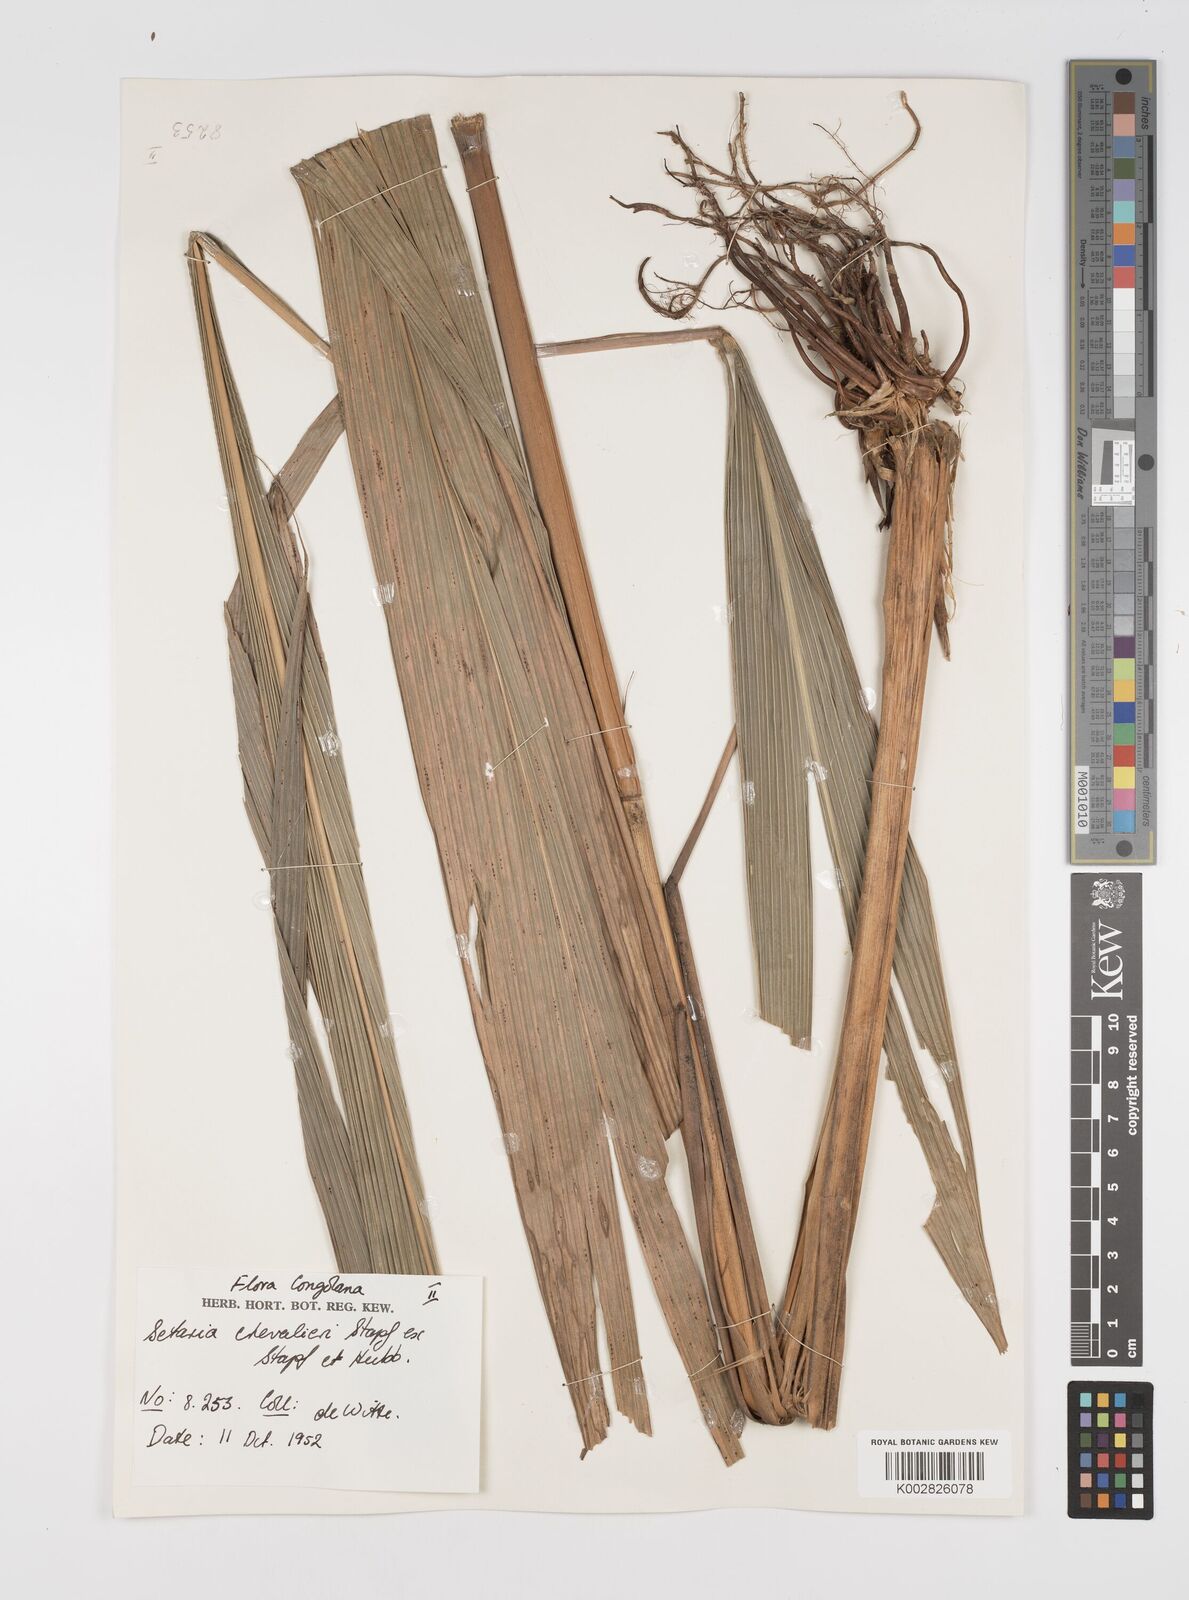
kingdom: Plantae
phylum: Tracheophyta
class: Liliopsida
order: Poales
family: Poaceae
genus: Setaria
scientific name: Setaria poiretiana
